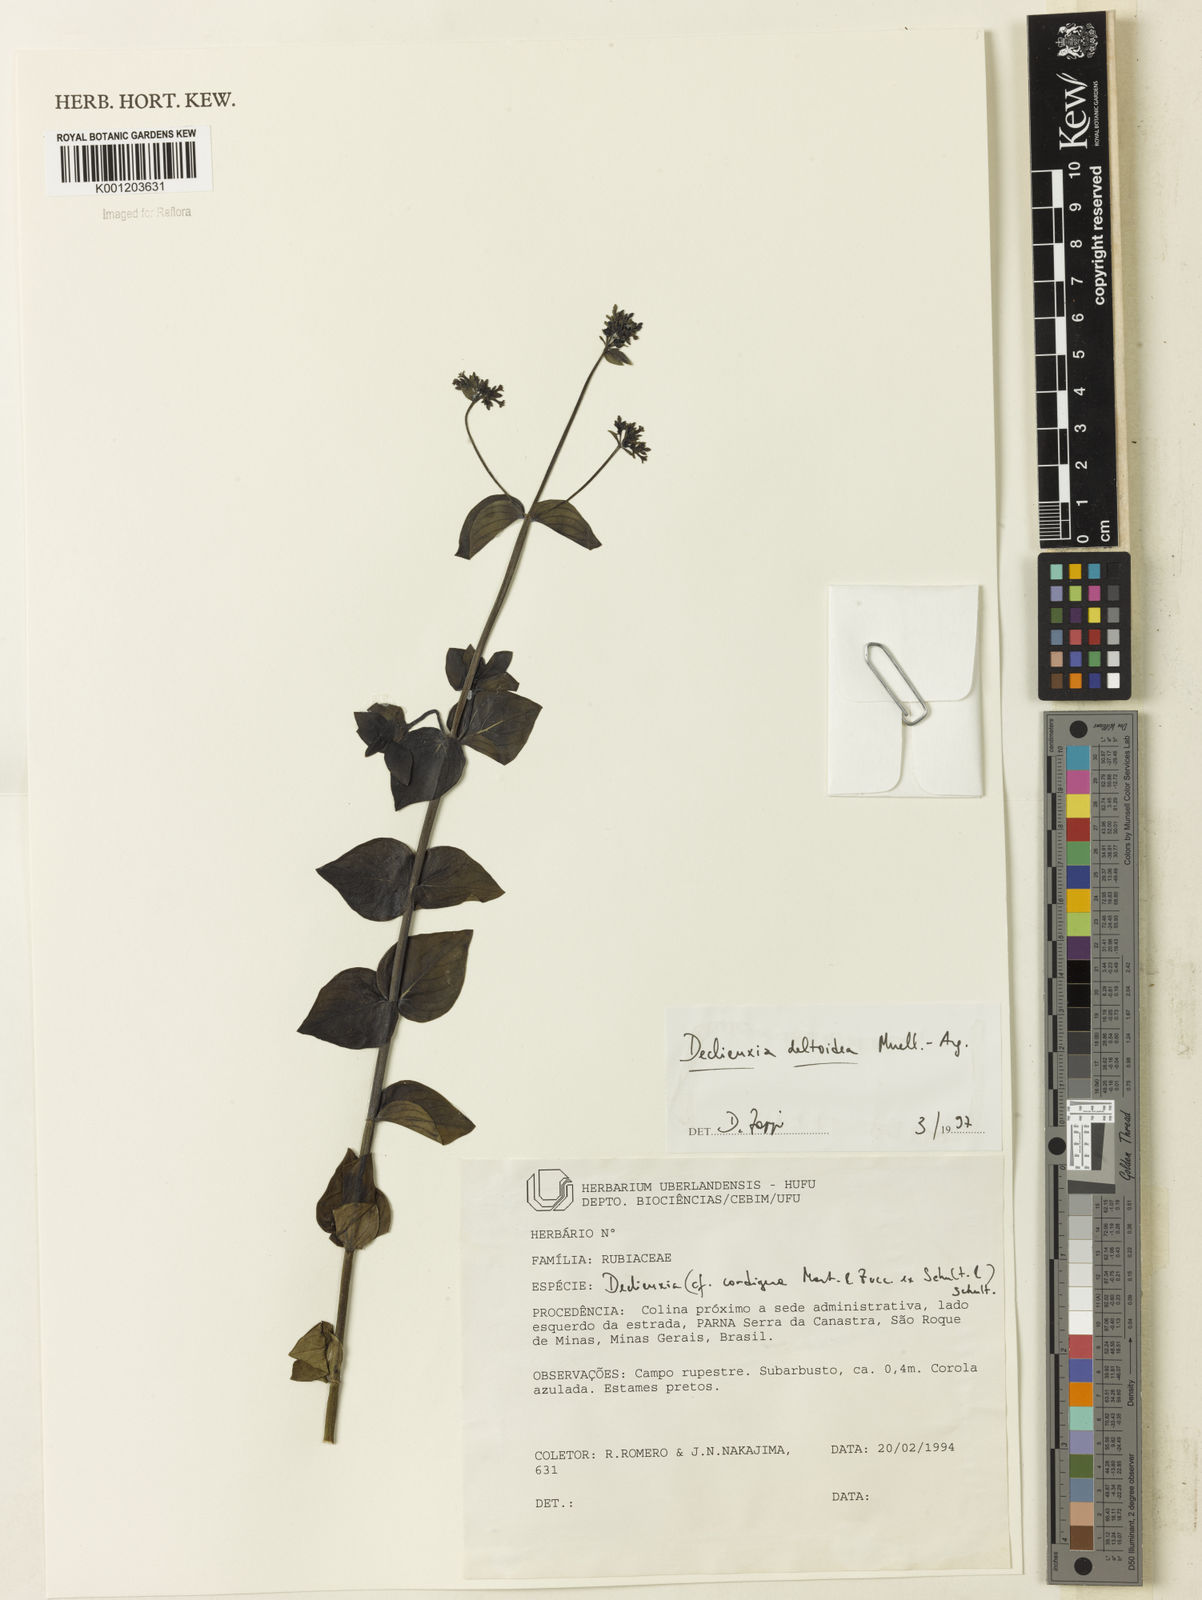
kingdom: Plantae
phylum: Tracheophyta
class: Magnoliopsida
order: Gentianales
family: Rubiaceae
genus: Declieuxia
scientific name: Declieuxia
